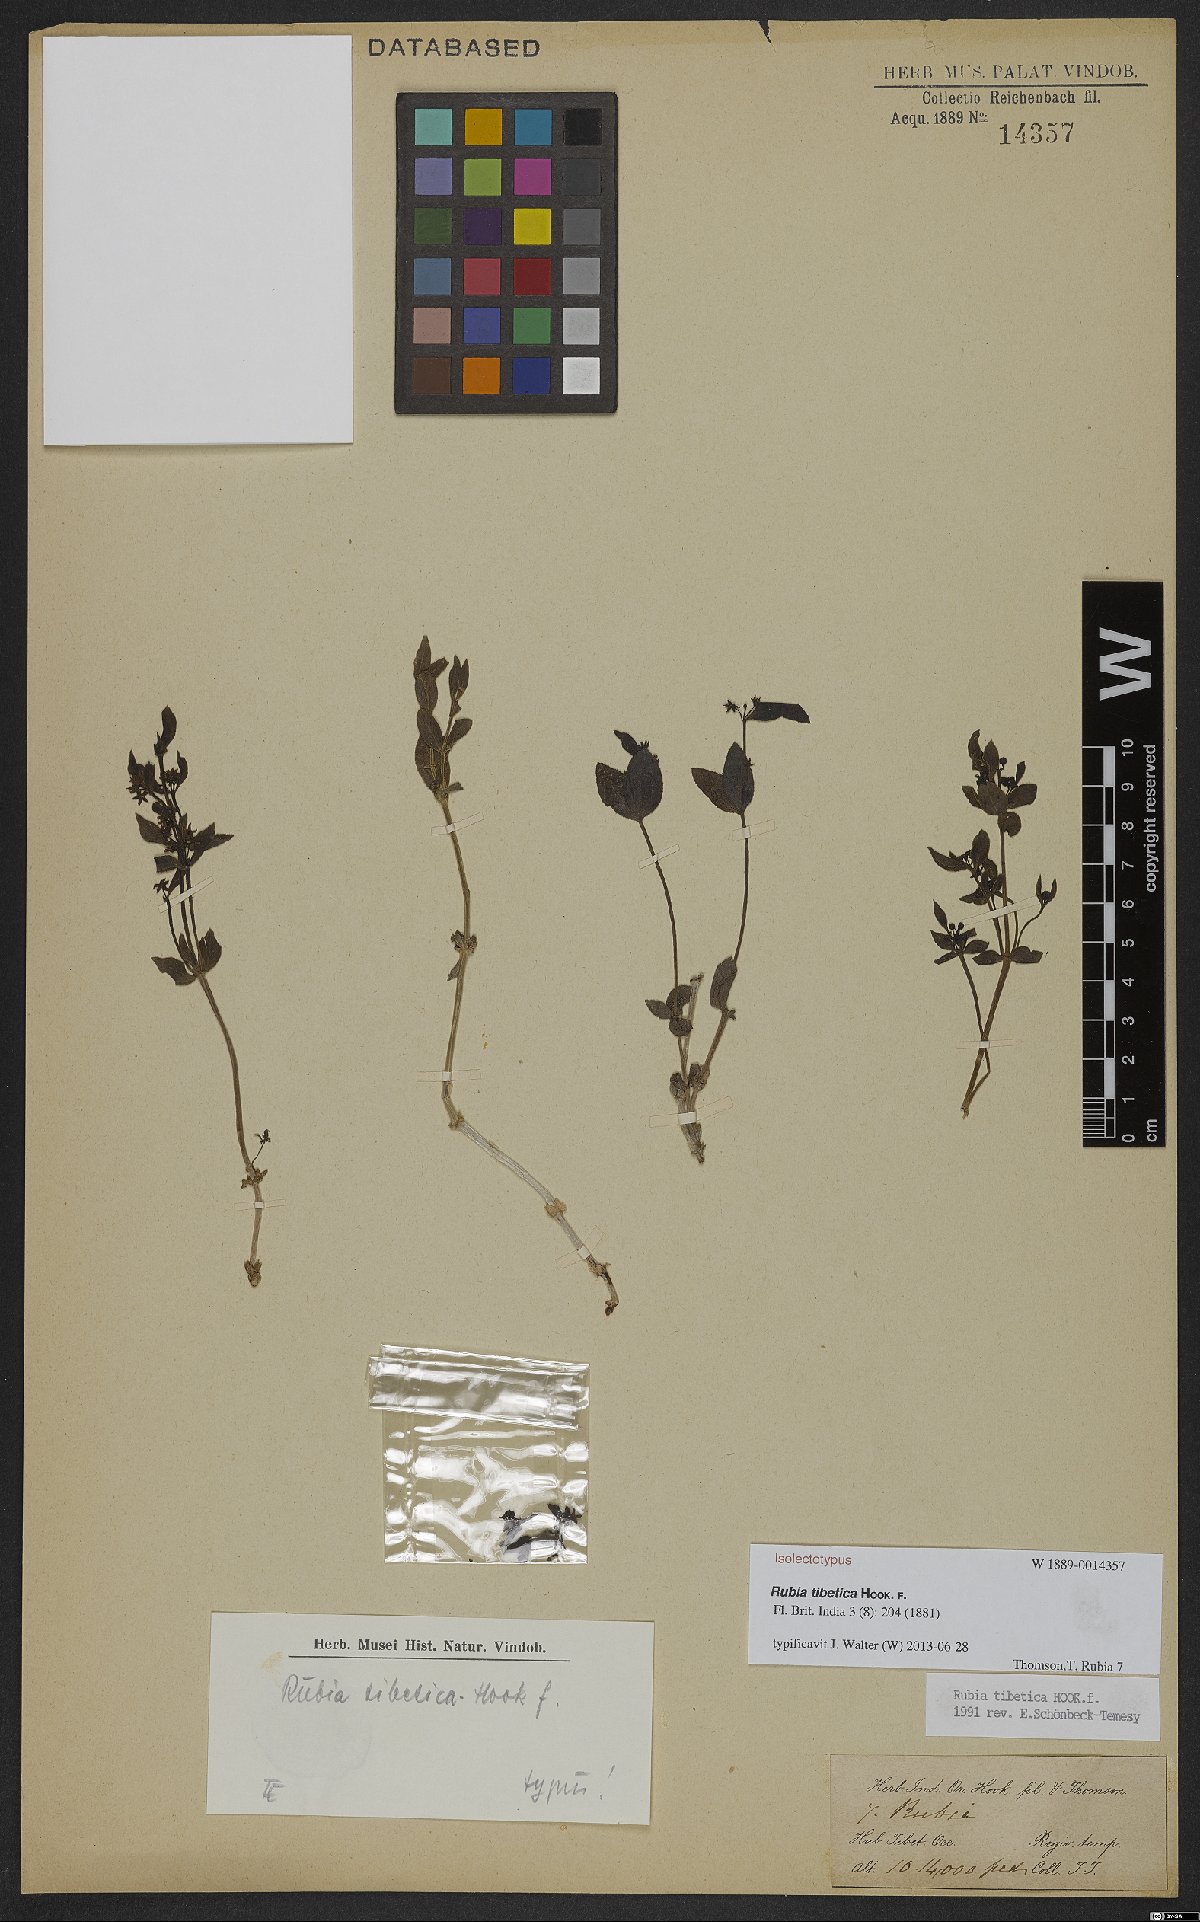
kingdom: Plantae
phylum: Tracheophyta
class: Magnoliopsida
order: Gentianales
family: Rubiaceae
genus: Rubia
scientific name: Rubia tibetica
